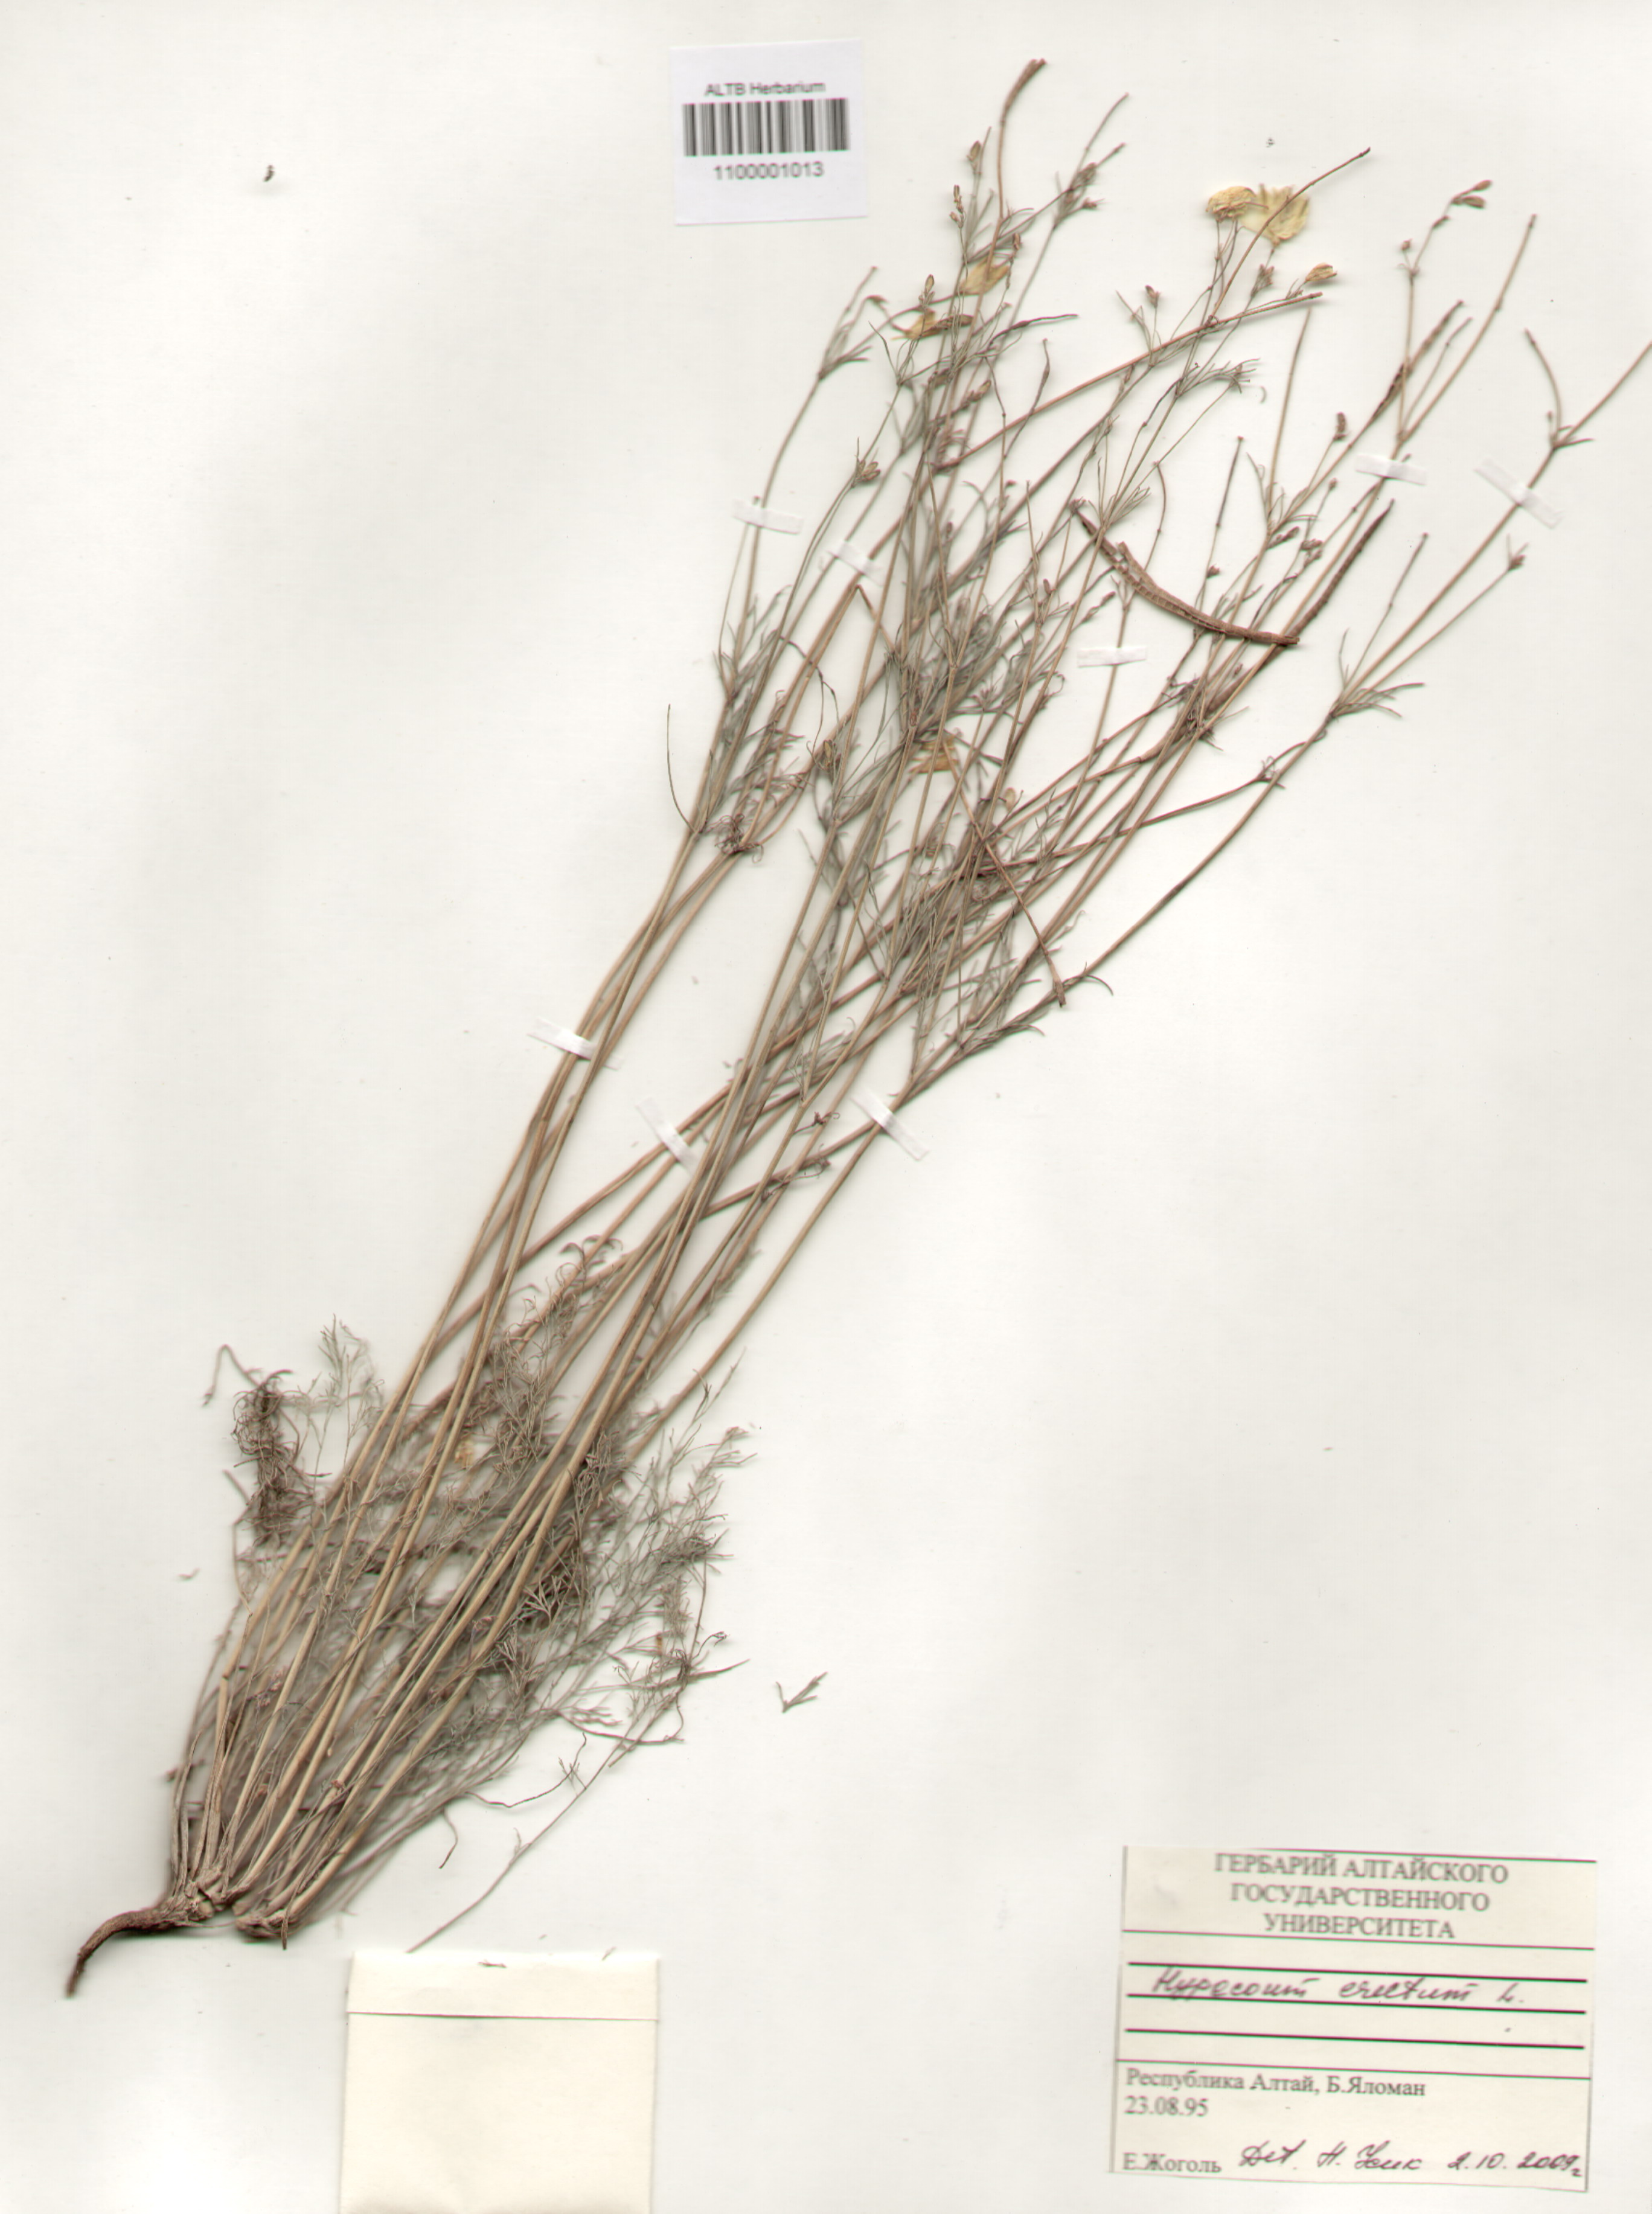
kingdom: Plantae
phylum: Tracheophyta
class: Magnoliopsida
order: Ranunculales
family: Papaveraceae
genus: Hypecoum
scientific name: Hypecoum erectum
